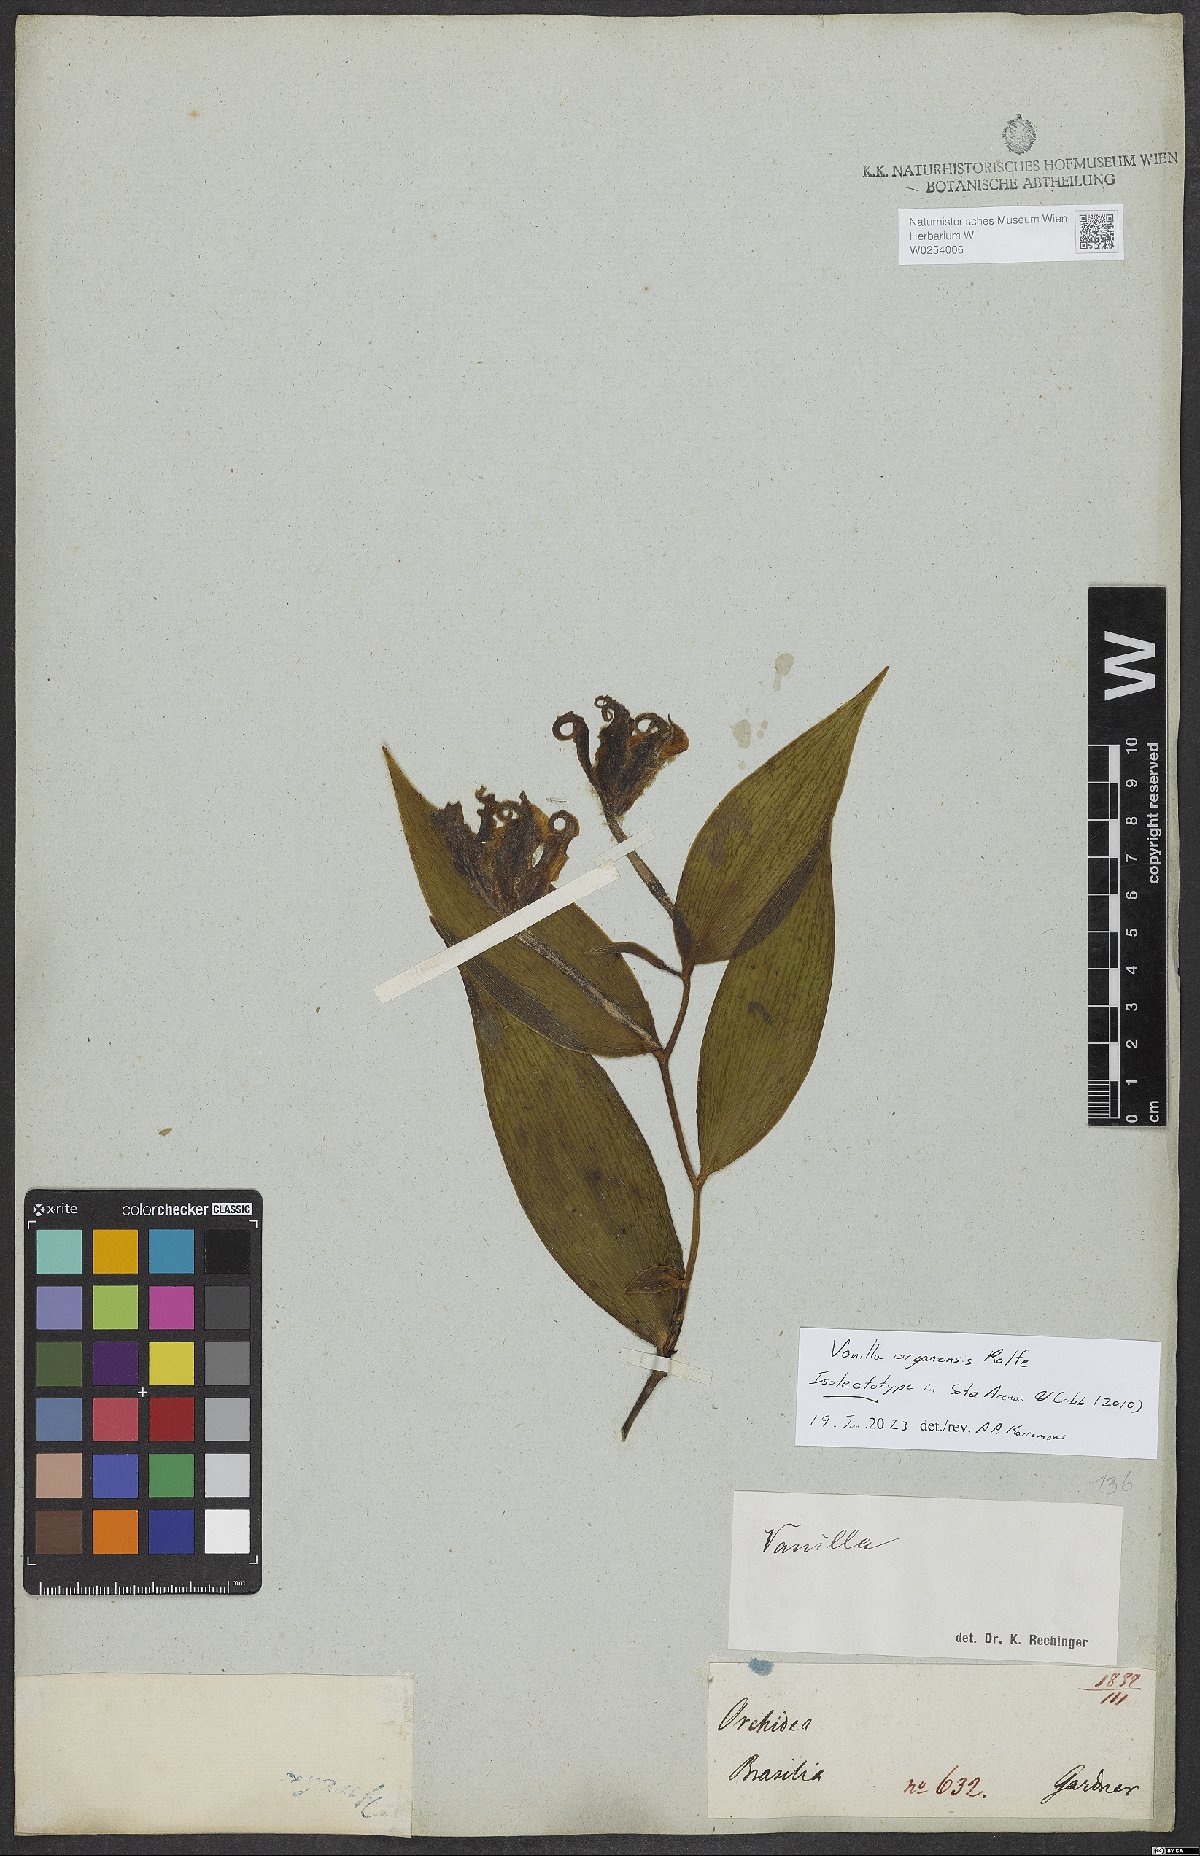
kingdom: Plantae
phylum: Tracheophyta
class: Liliopsida
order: Asparagales
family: Orchidaceae
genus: Vanilla
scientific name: Vanilla
